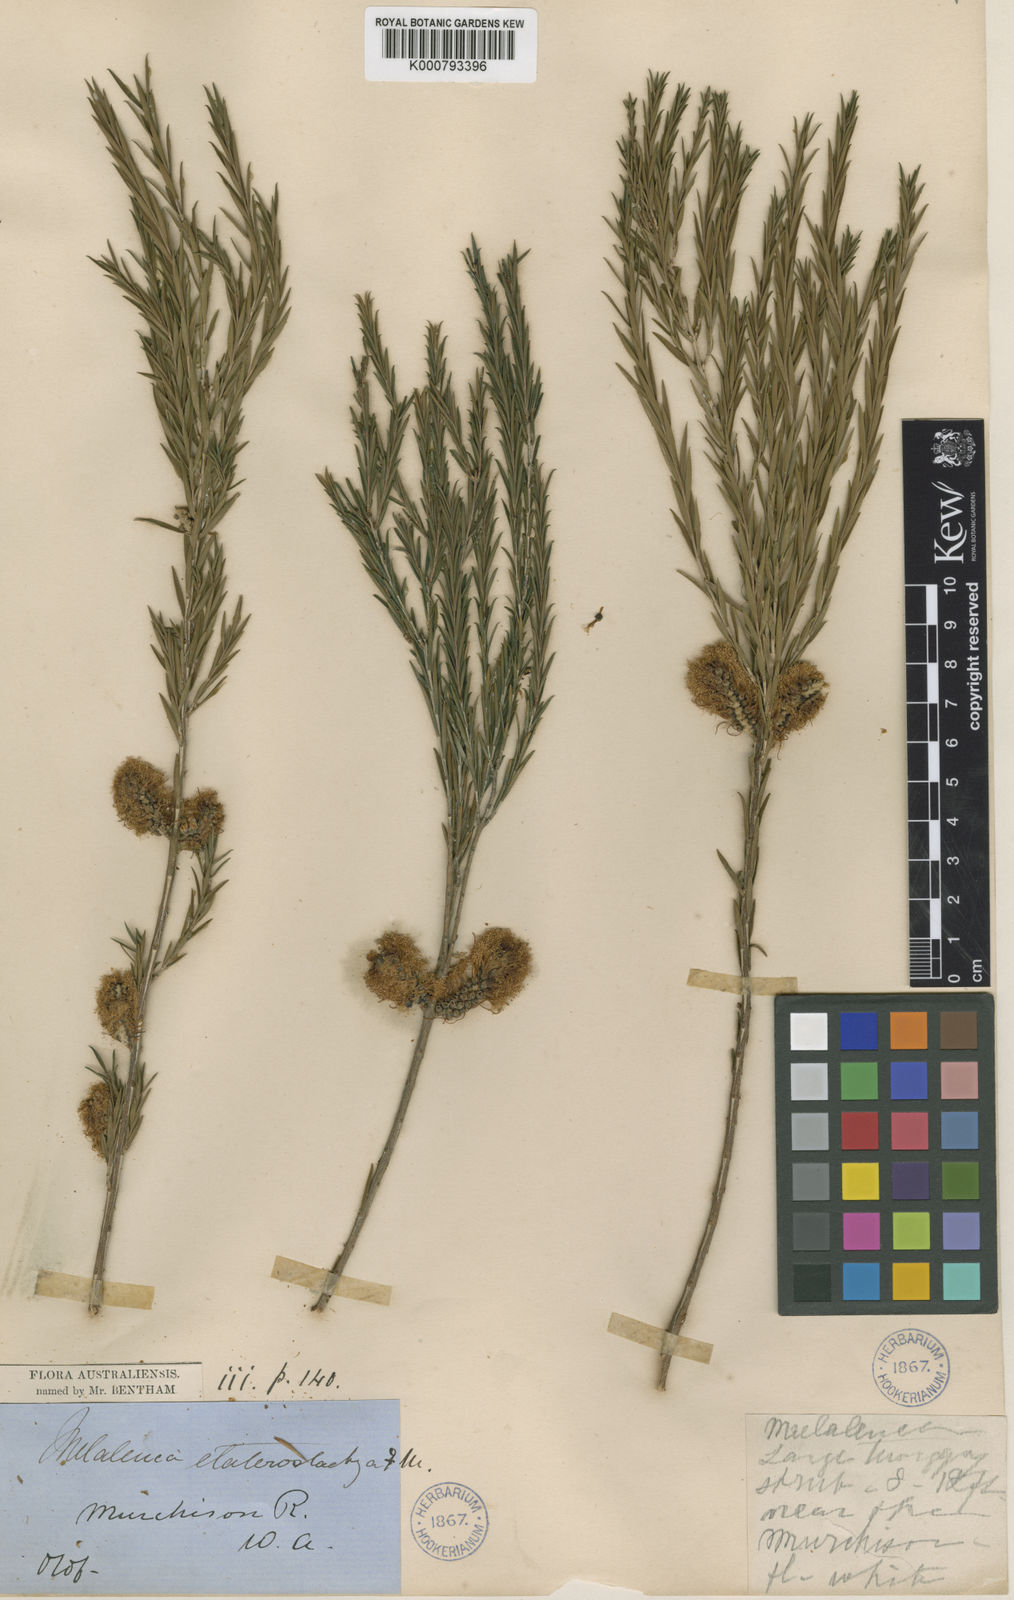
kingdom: Plantae
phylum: Tracheophyta
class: Magnoliopsida
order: Myrtales
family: Myrtaceae
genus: Melaleuca
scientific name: Melaleuca eleuterostachya
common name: Hummock honey myrtle
